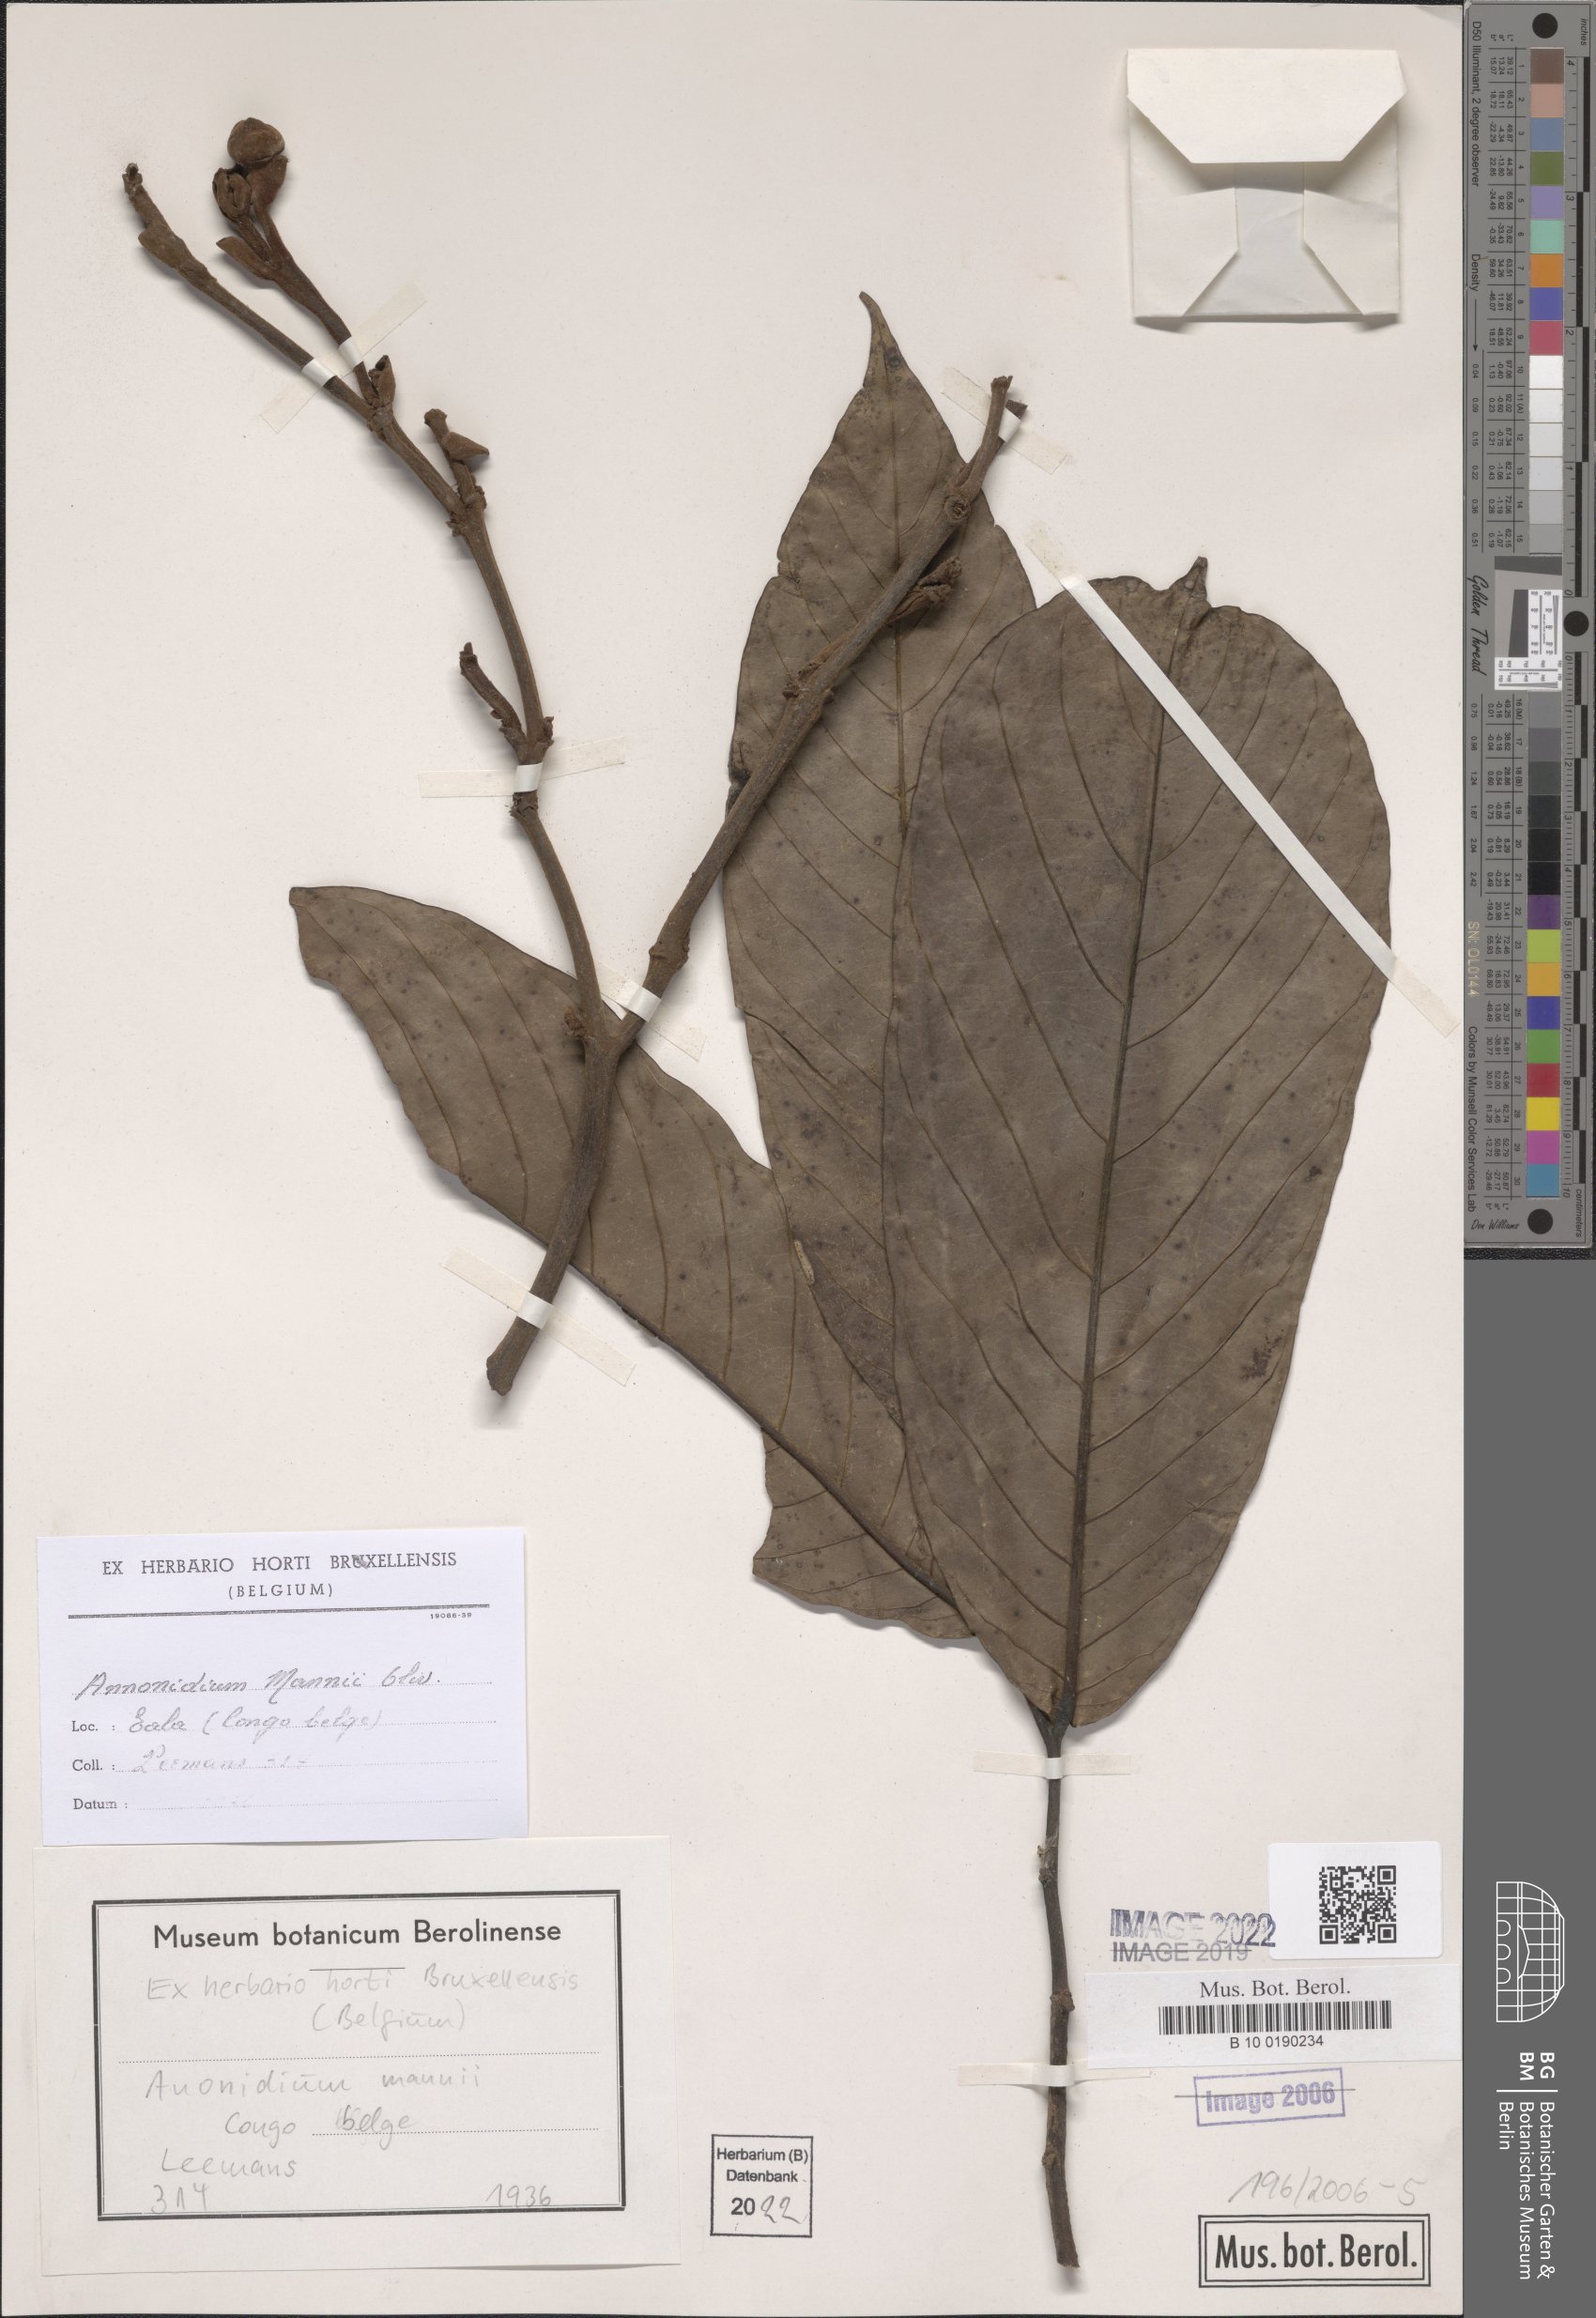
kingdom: Plantae
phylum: Tracheophyta
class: Magnoliopsida
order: Magnoliales
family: Annonaceae
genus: Anonidium
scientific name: Anonidium mannii
